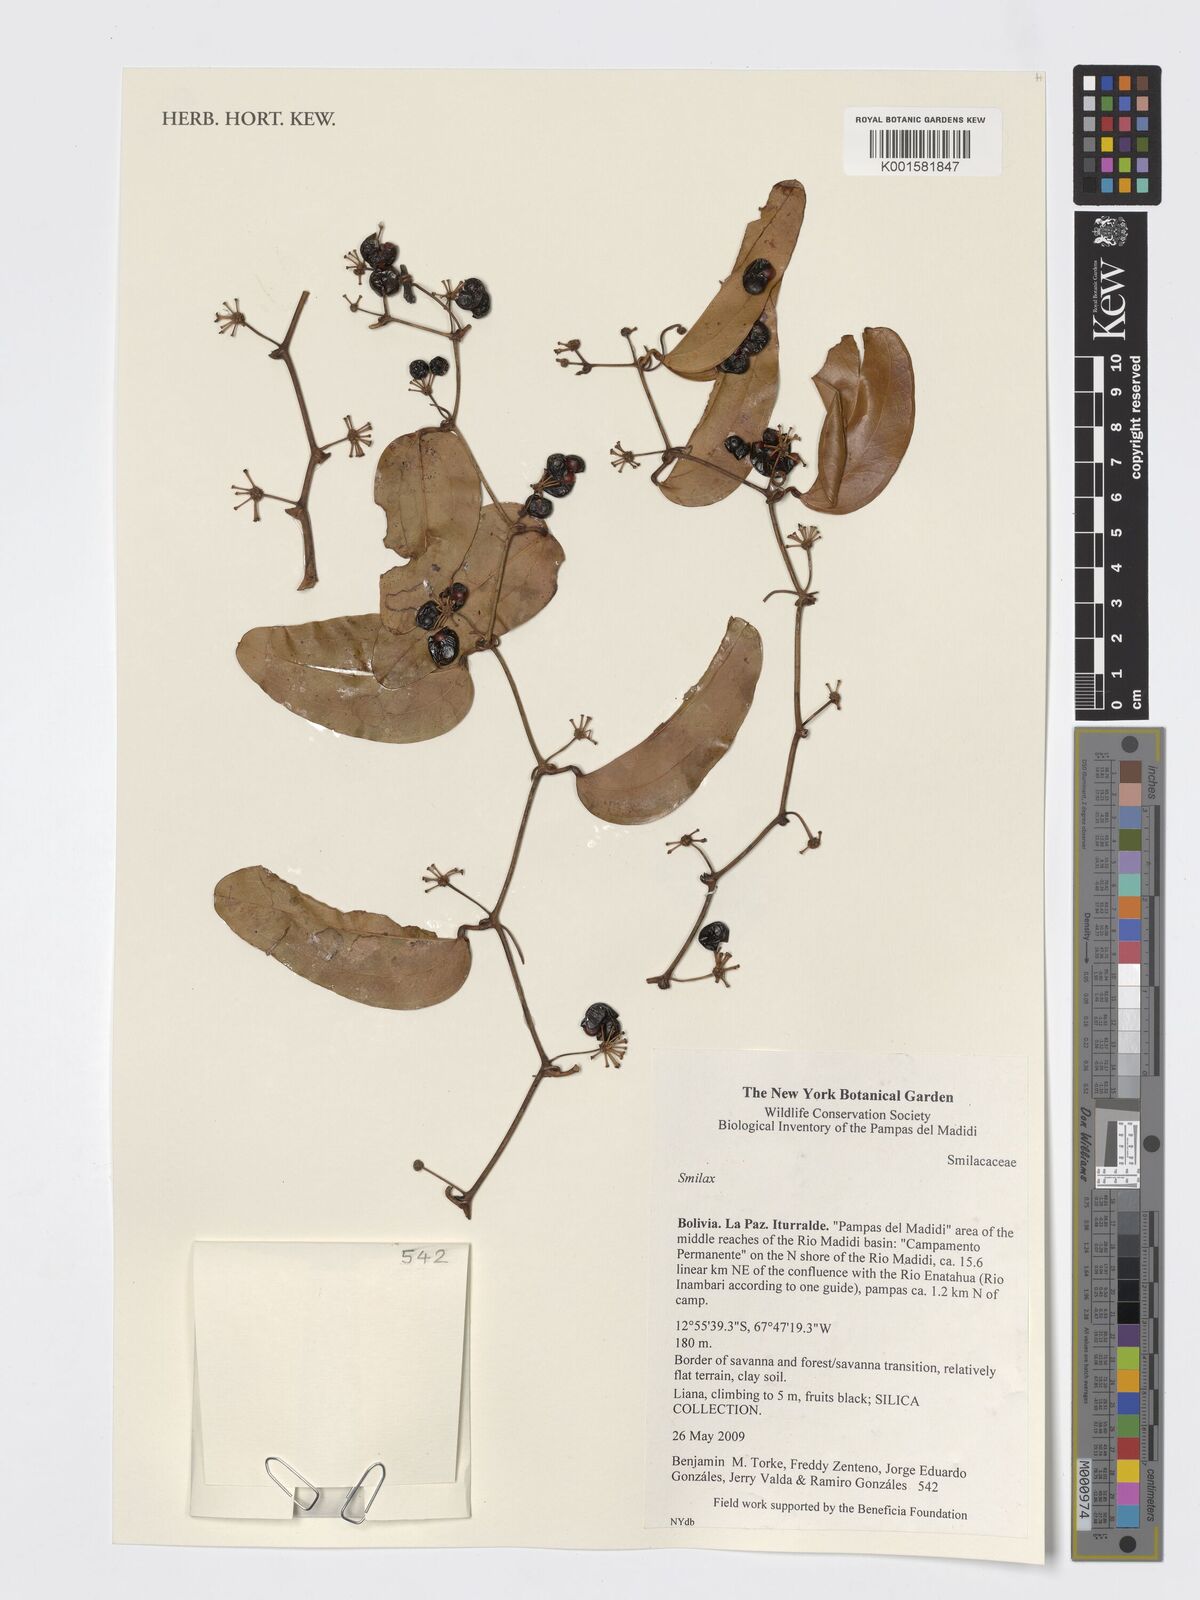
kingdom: Plantae
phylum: Tracheophyta
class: Liliopsida
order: Liliales
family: Smilacaceae
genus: Smilax
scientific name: Smilax
